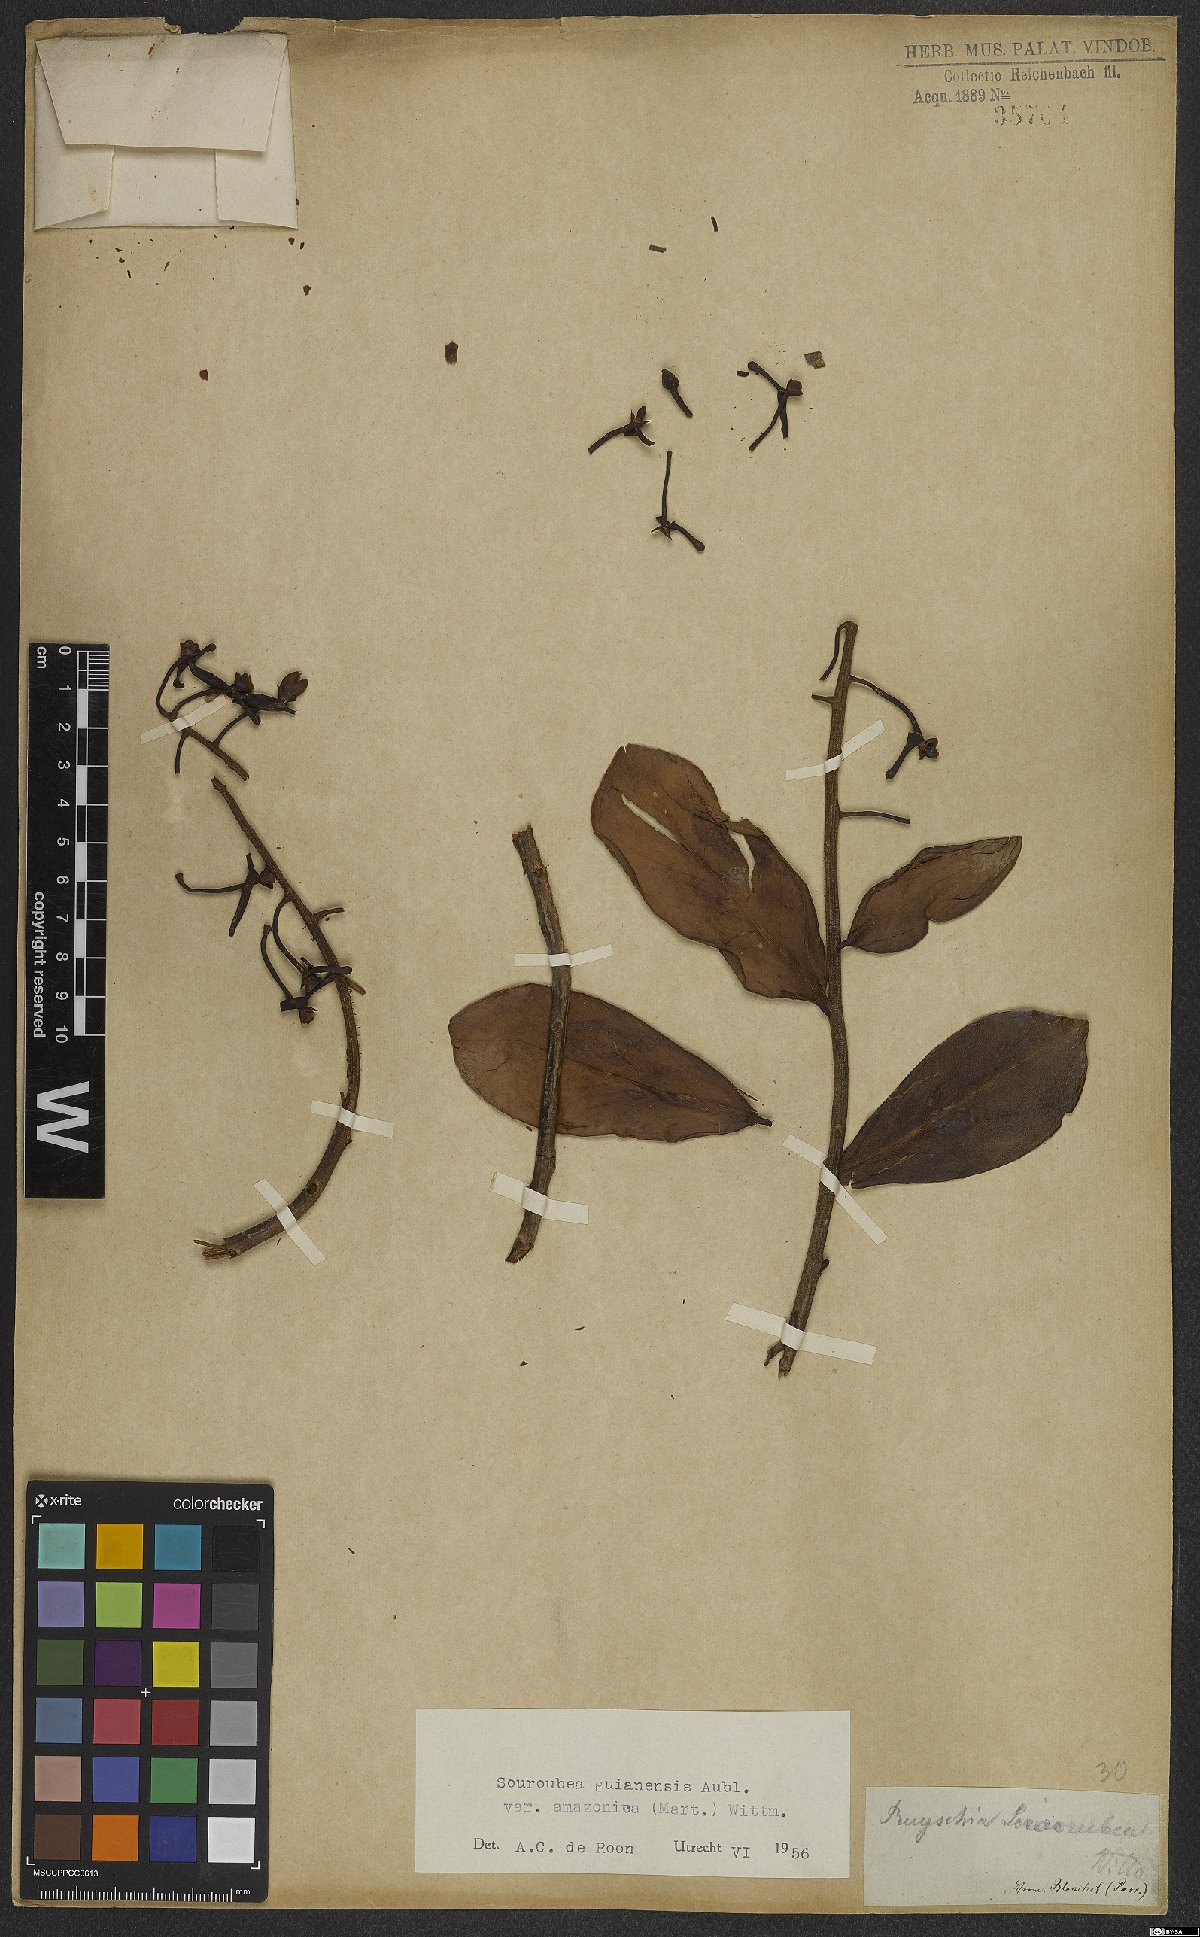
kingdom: Plantae
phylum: Tracheophyta
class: Magnoliopsida
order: Ericales
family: Marcgraviaceae
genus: Souroubea
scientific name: Souroubea guianensis
